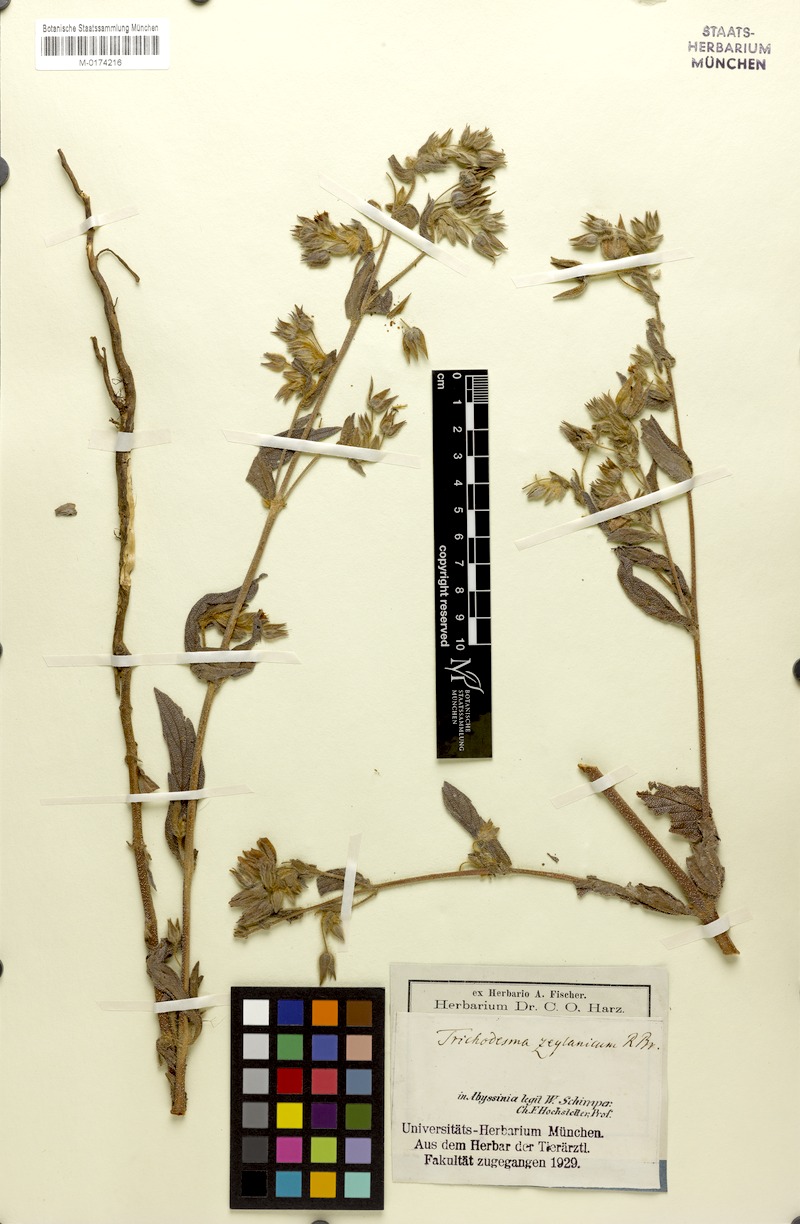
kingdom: Plantae
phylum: Tracheophyta
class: Magnoliopsida
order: Boraginales
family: Boraginaceae
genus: Trichodesma
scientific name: Trichodesma zeylanicum
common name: Camelbush
